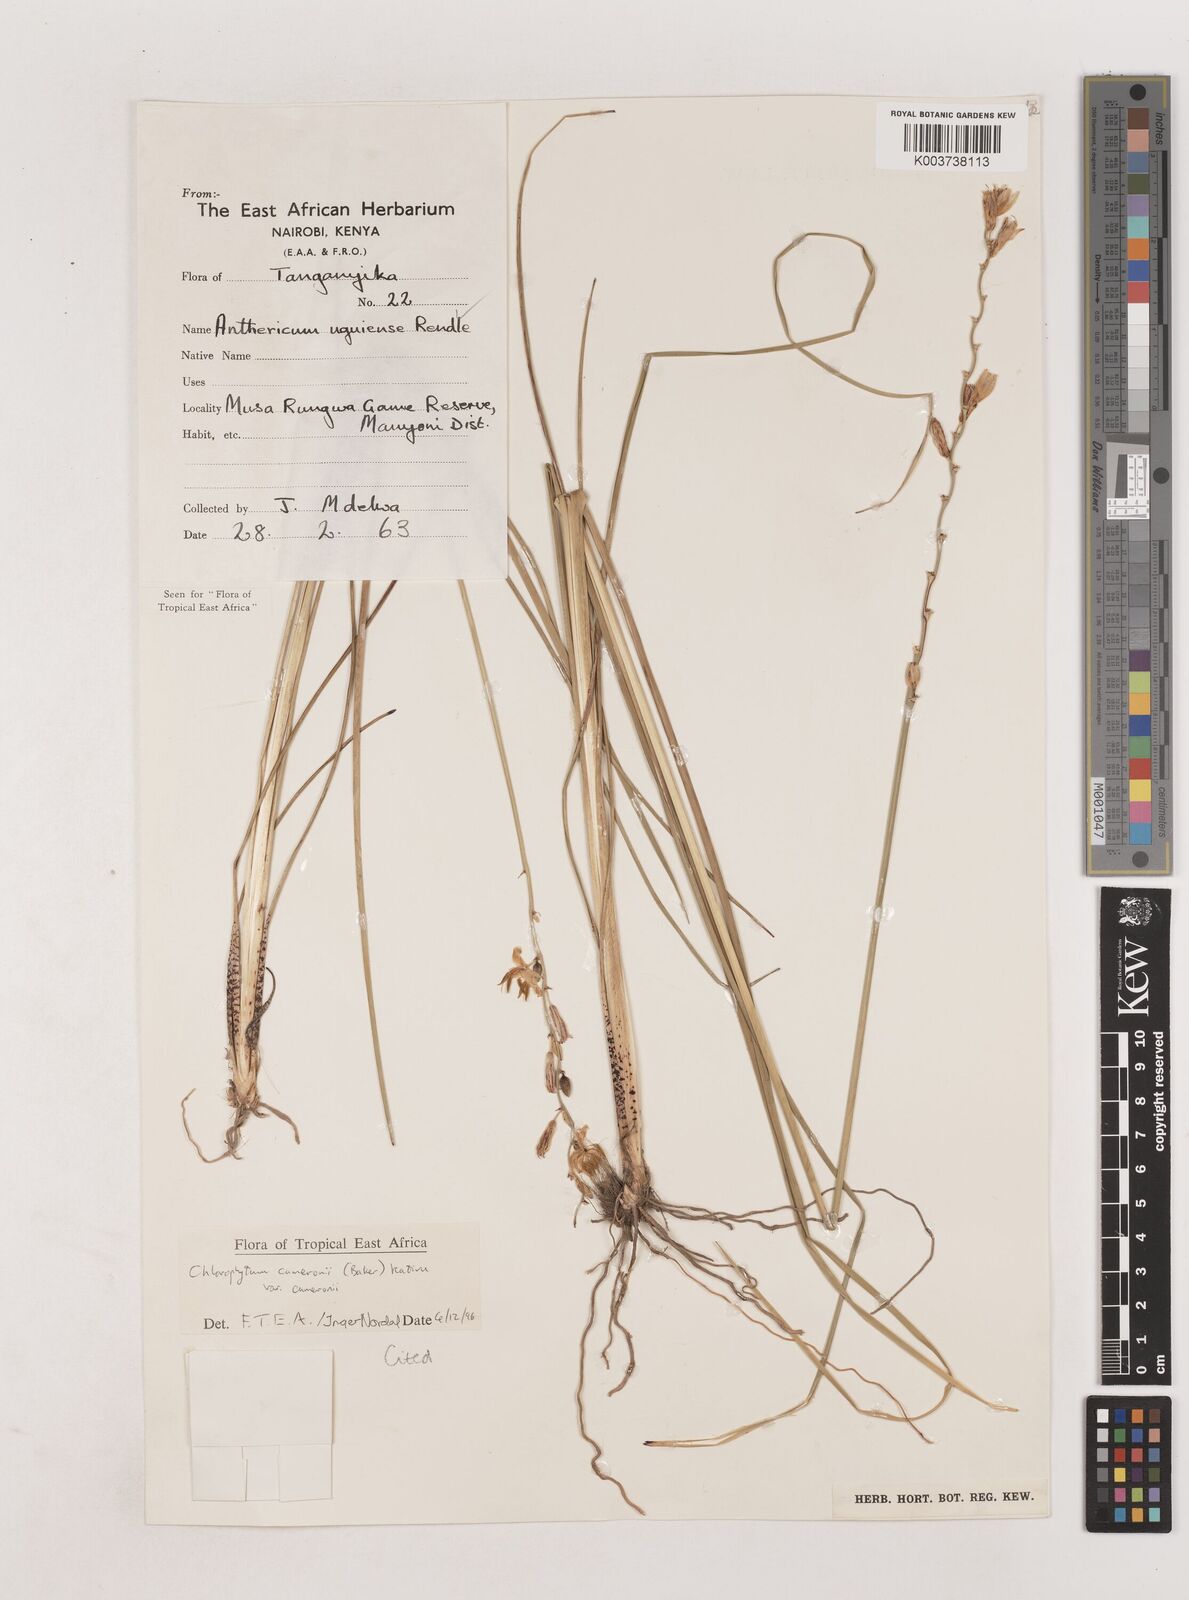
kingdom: Plantae
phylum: Tracheophyta
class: Liliopsida
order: Asparagales
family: Asparagaceae
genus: Chlorophytum
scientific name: Chlorophytum cameronii
